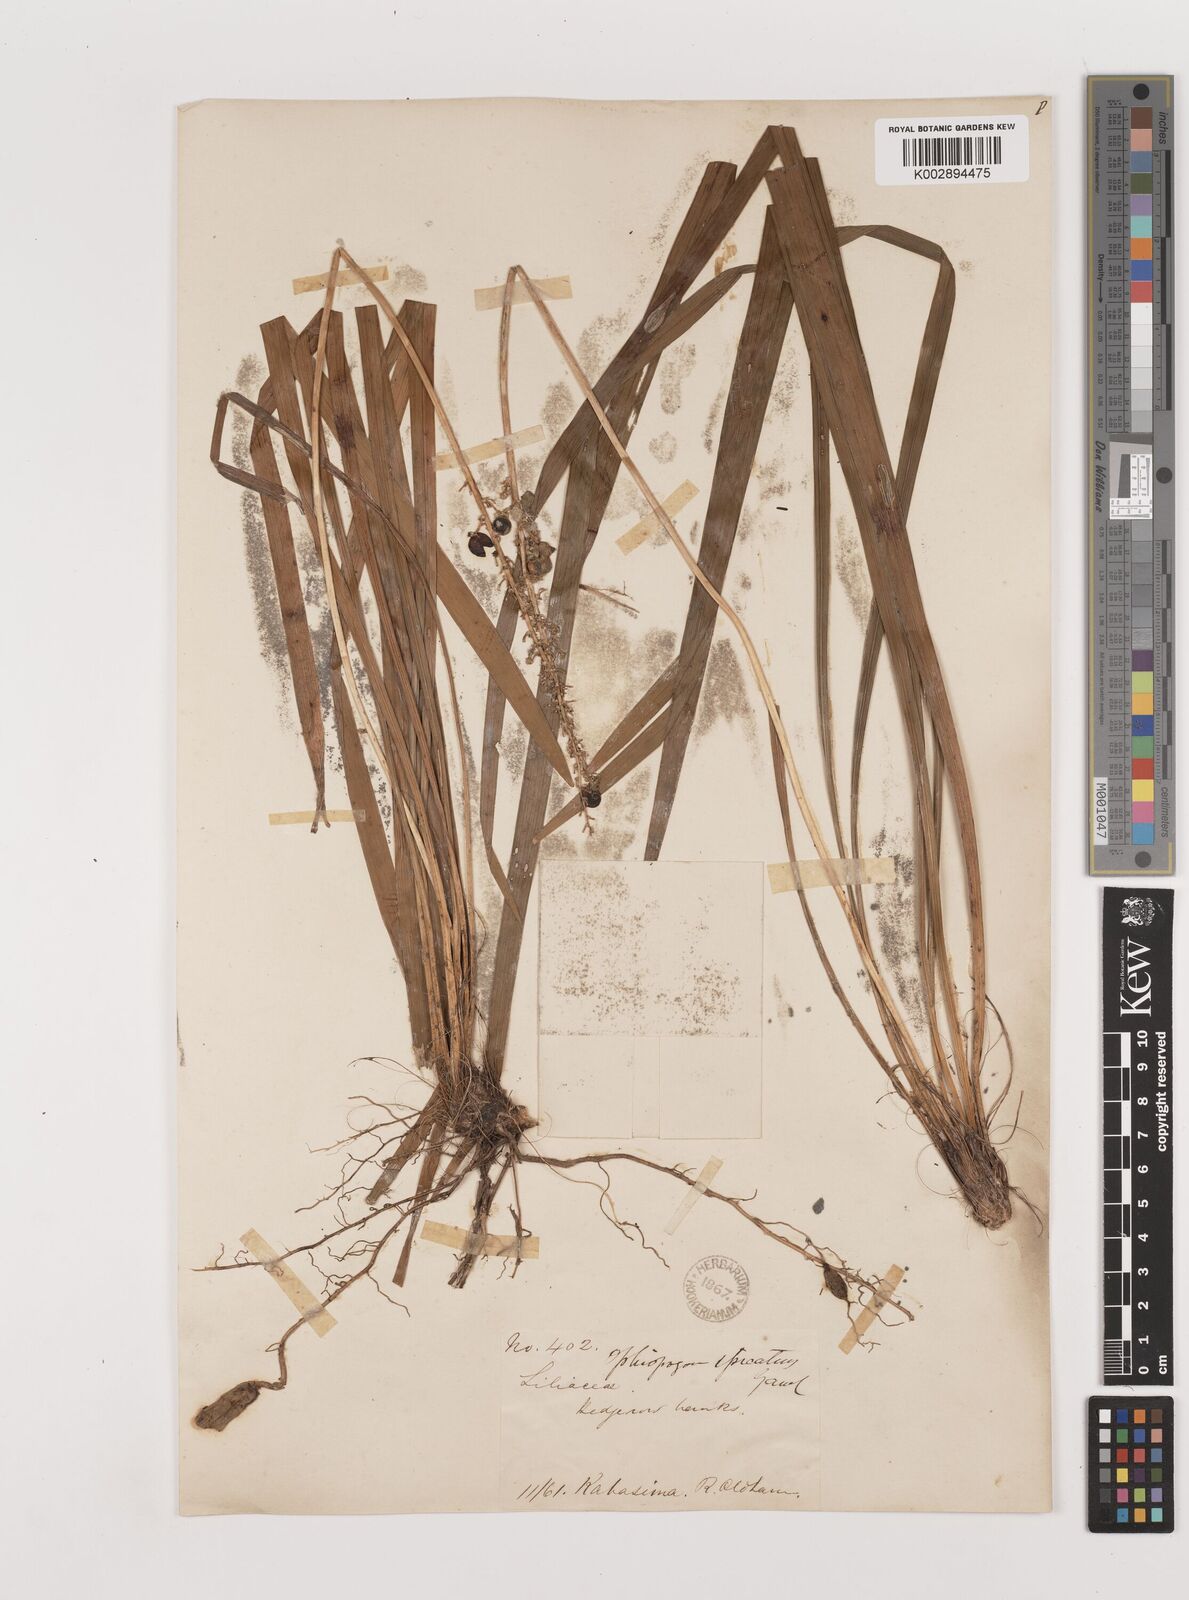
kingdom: Plantae
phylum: Tracheophyta
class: Liliopsida
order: Asparagales
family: Asparagaceae
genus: Liriope
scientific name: Liriope muscari
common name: Big blue lilyturf
